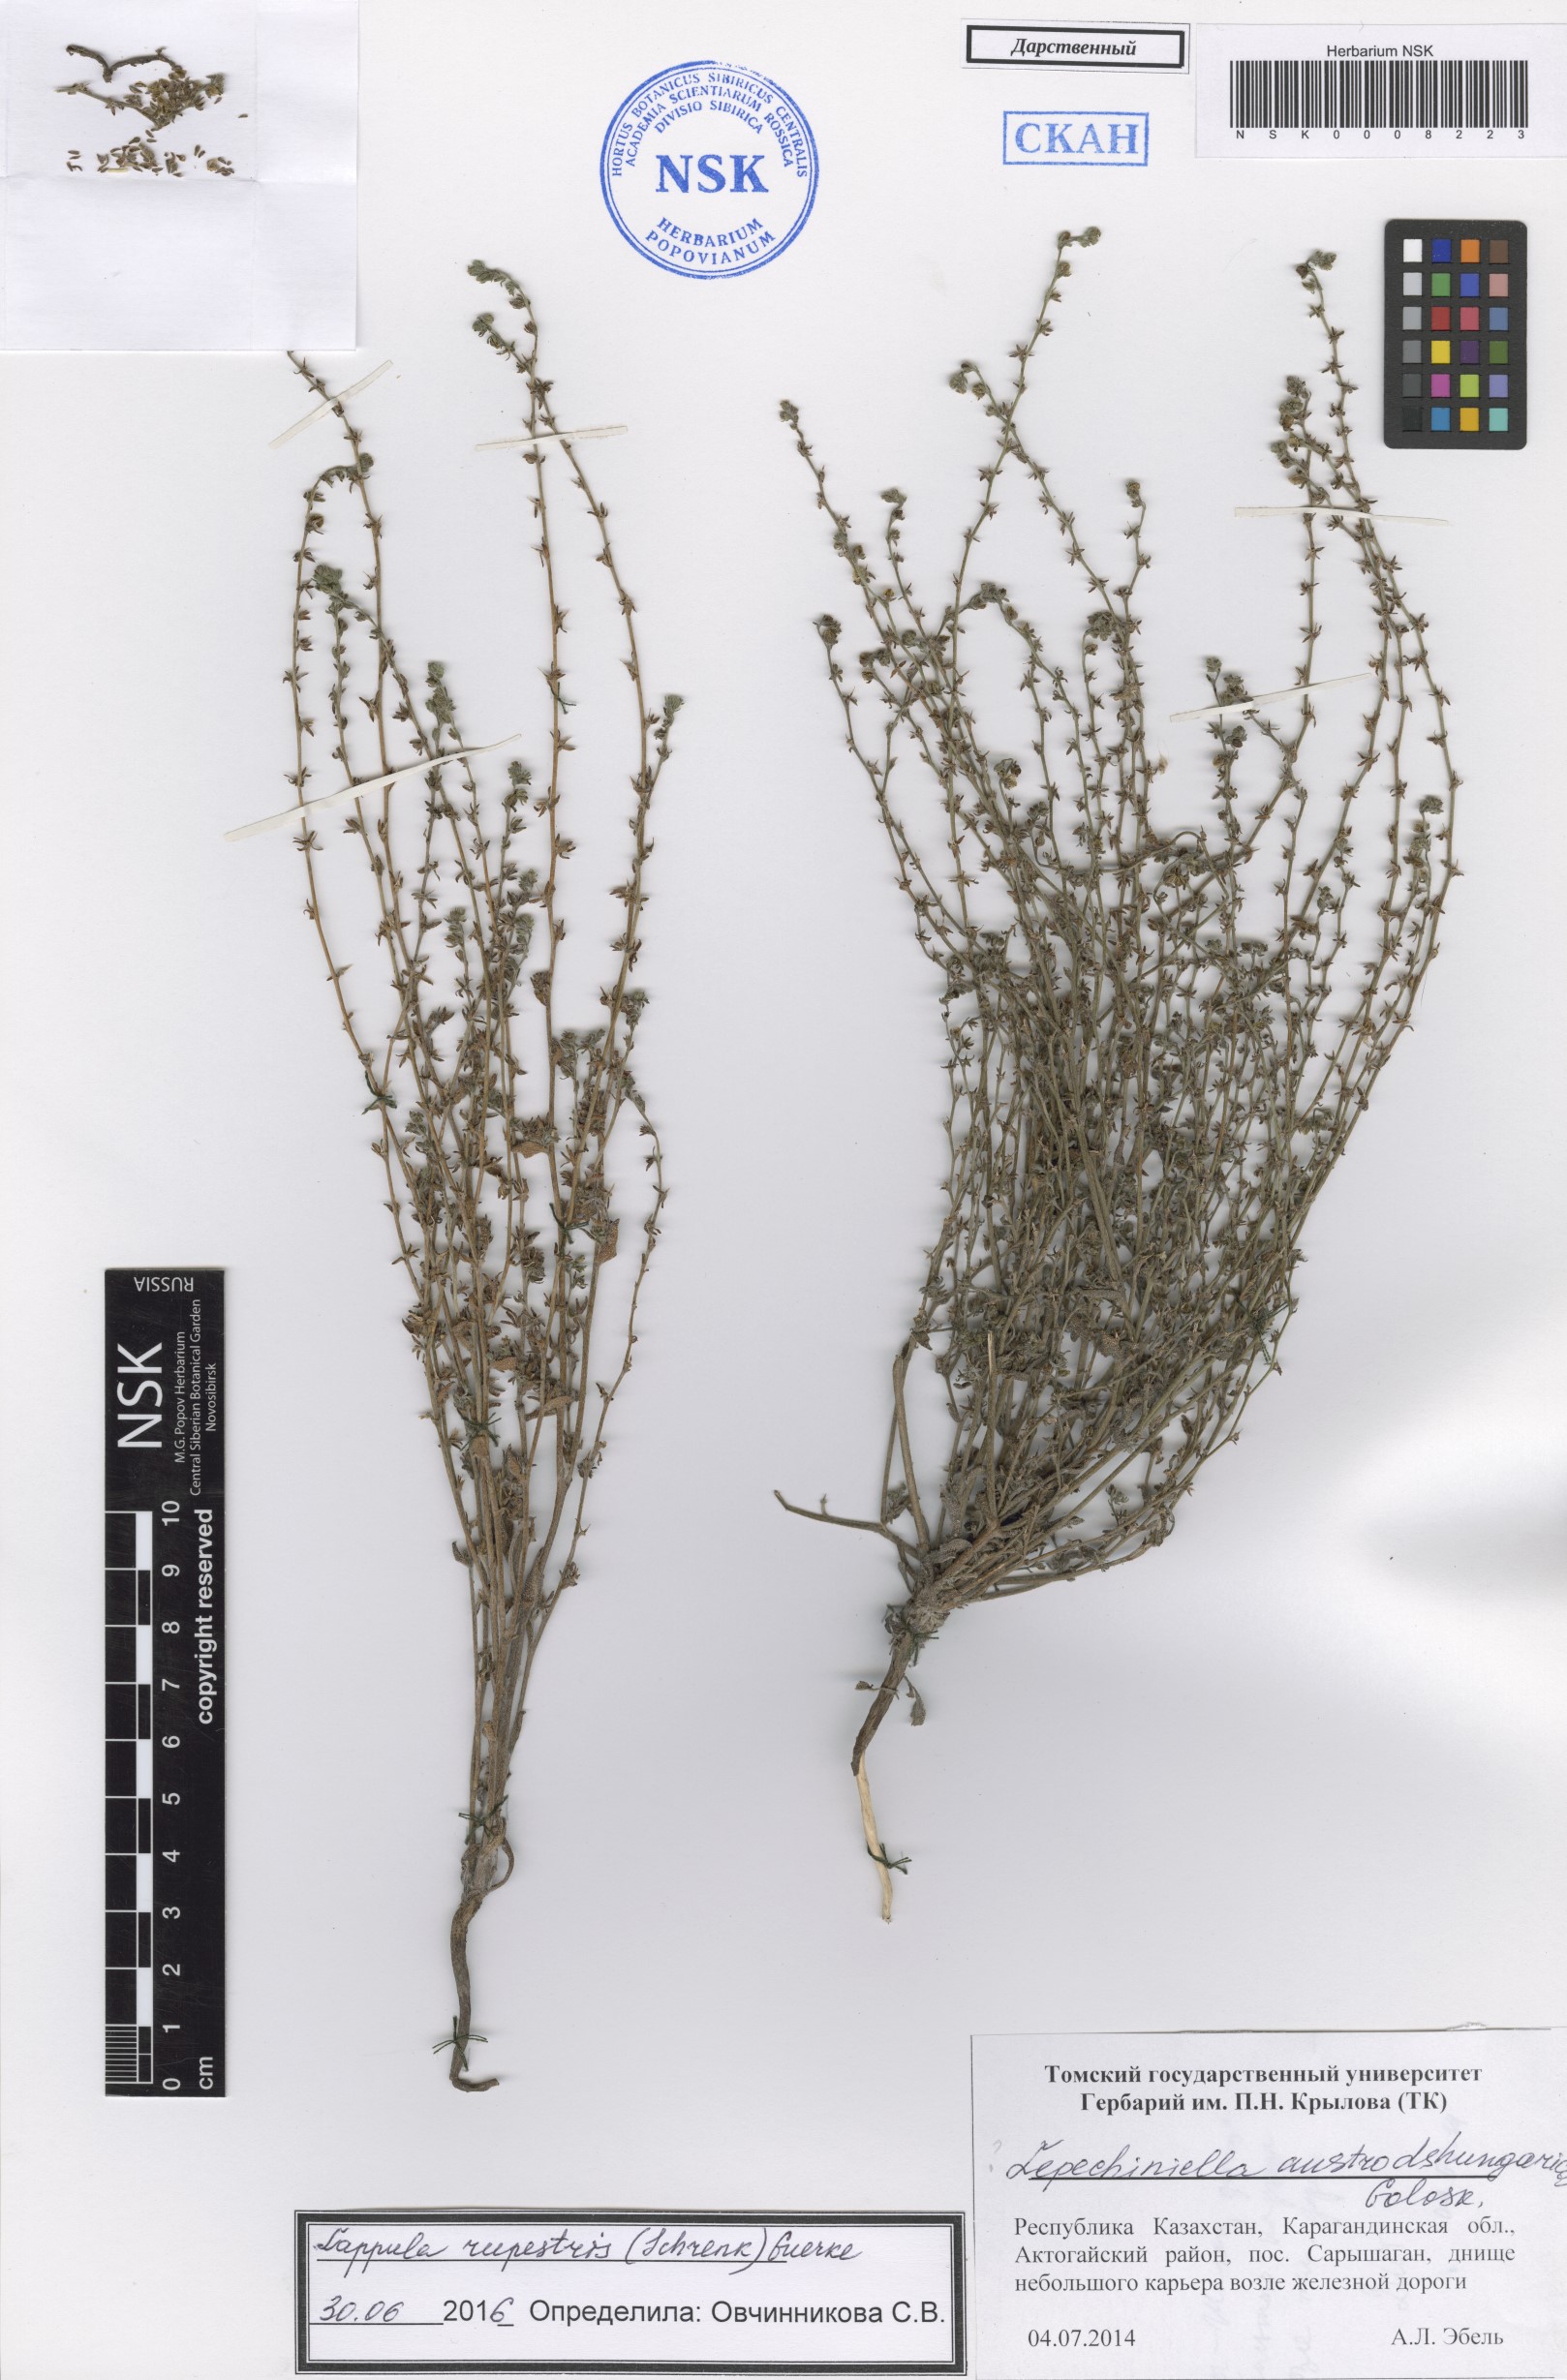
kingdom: Plantae
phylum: Tracheophyta
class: Magnoliopsida
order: Boraginales
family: Boraginaceae
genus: Lappula
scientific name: Lappula rupestris
